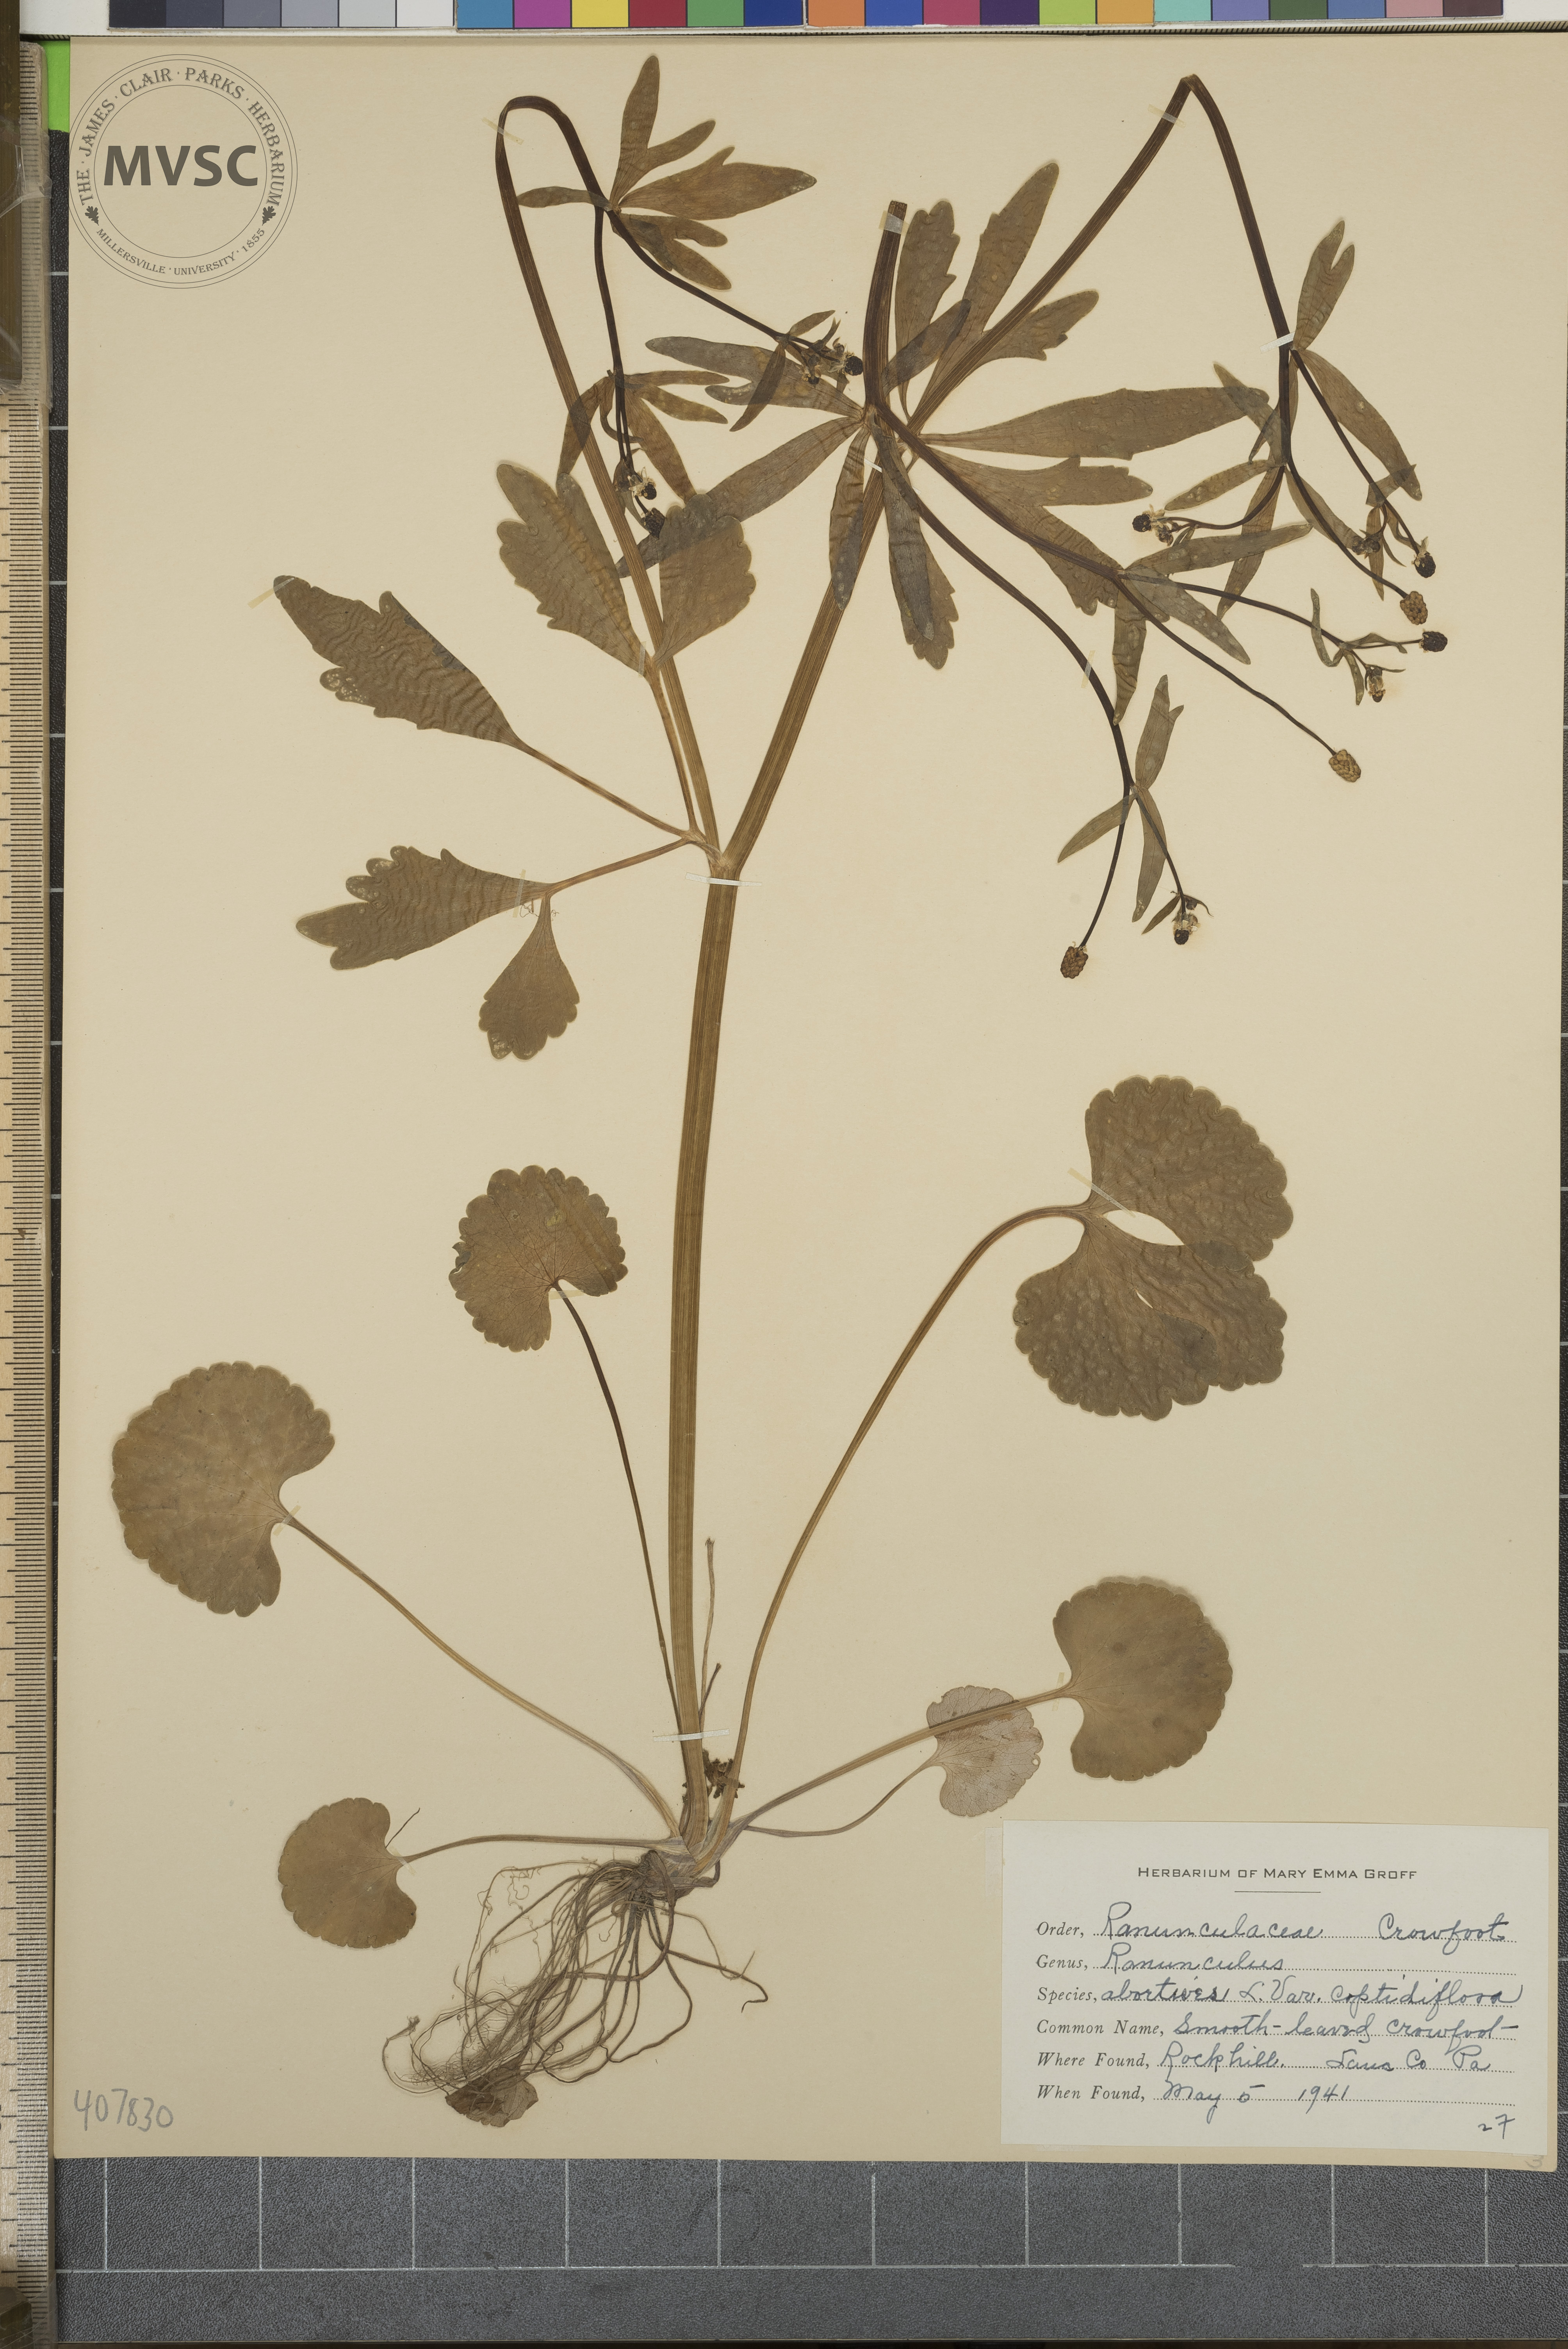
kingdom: Plantae
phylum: Tracheophyta
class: Magnoliopsida
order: Ranunculales
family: Ranunculaceae
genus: Ranunculus
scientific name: Ranunculus abortivus
